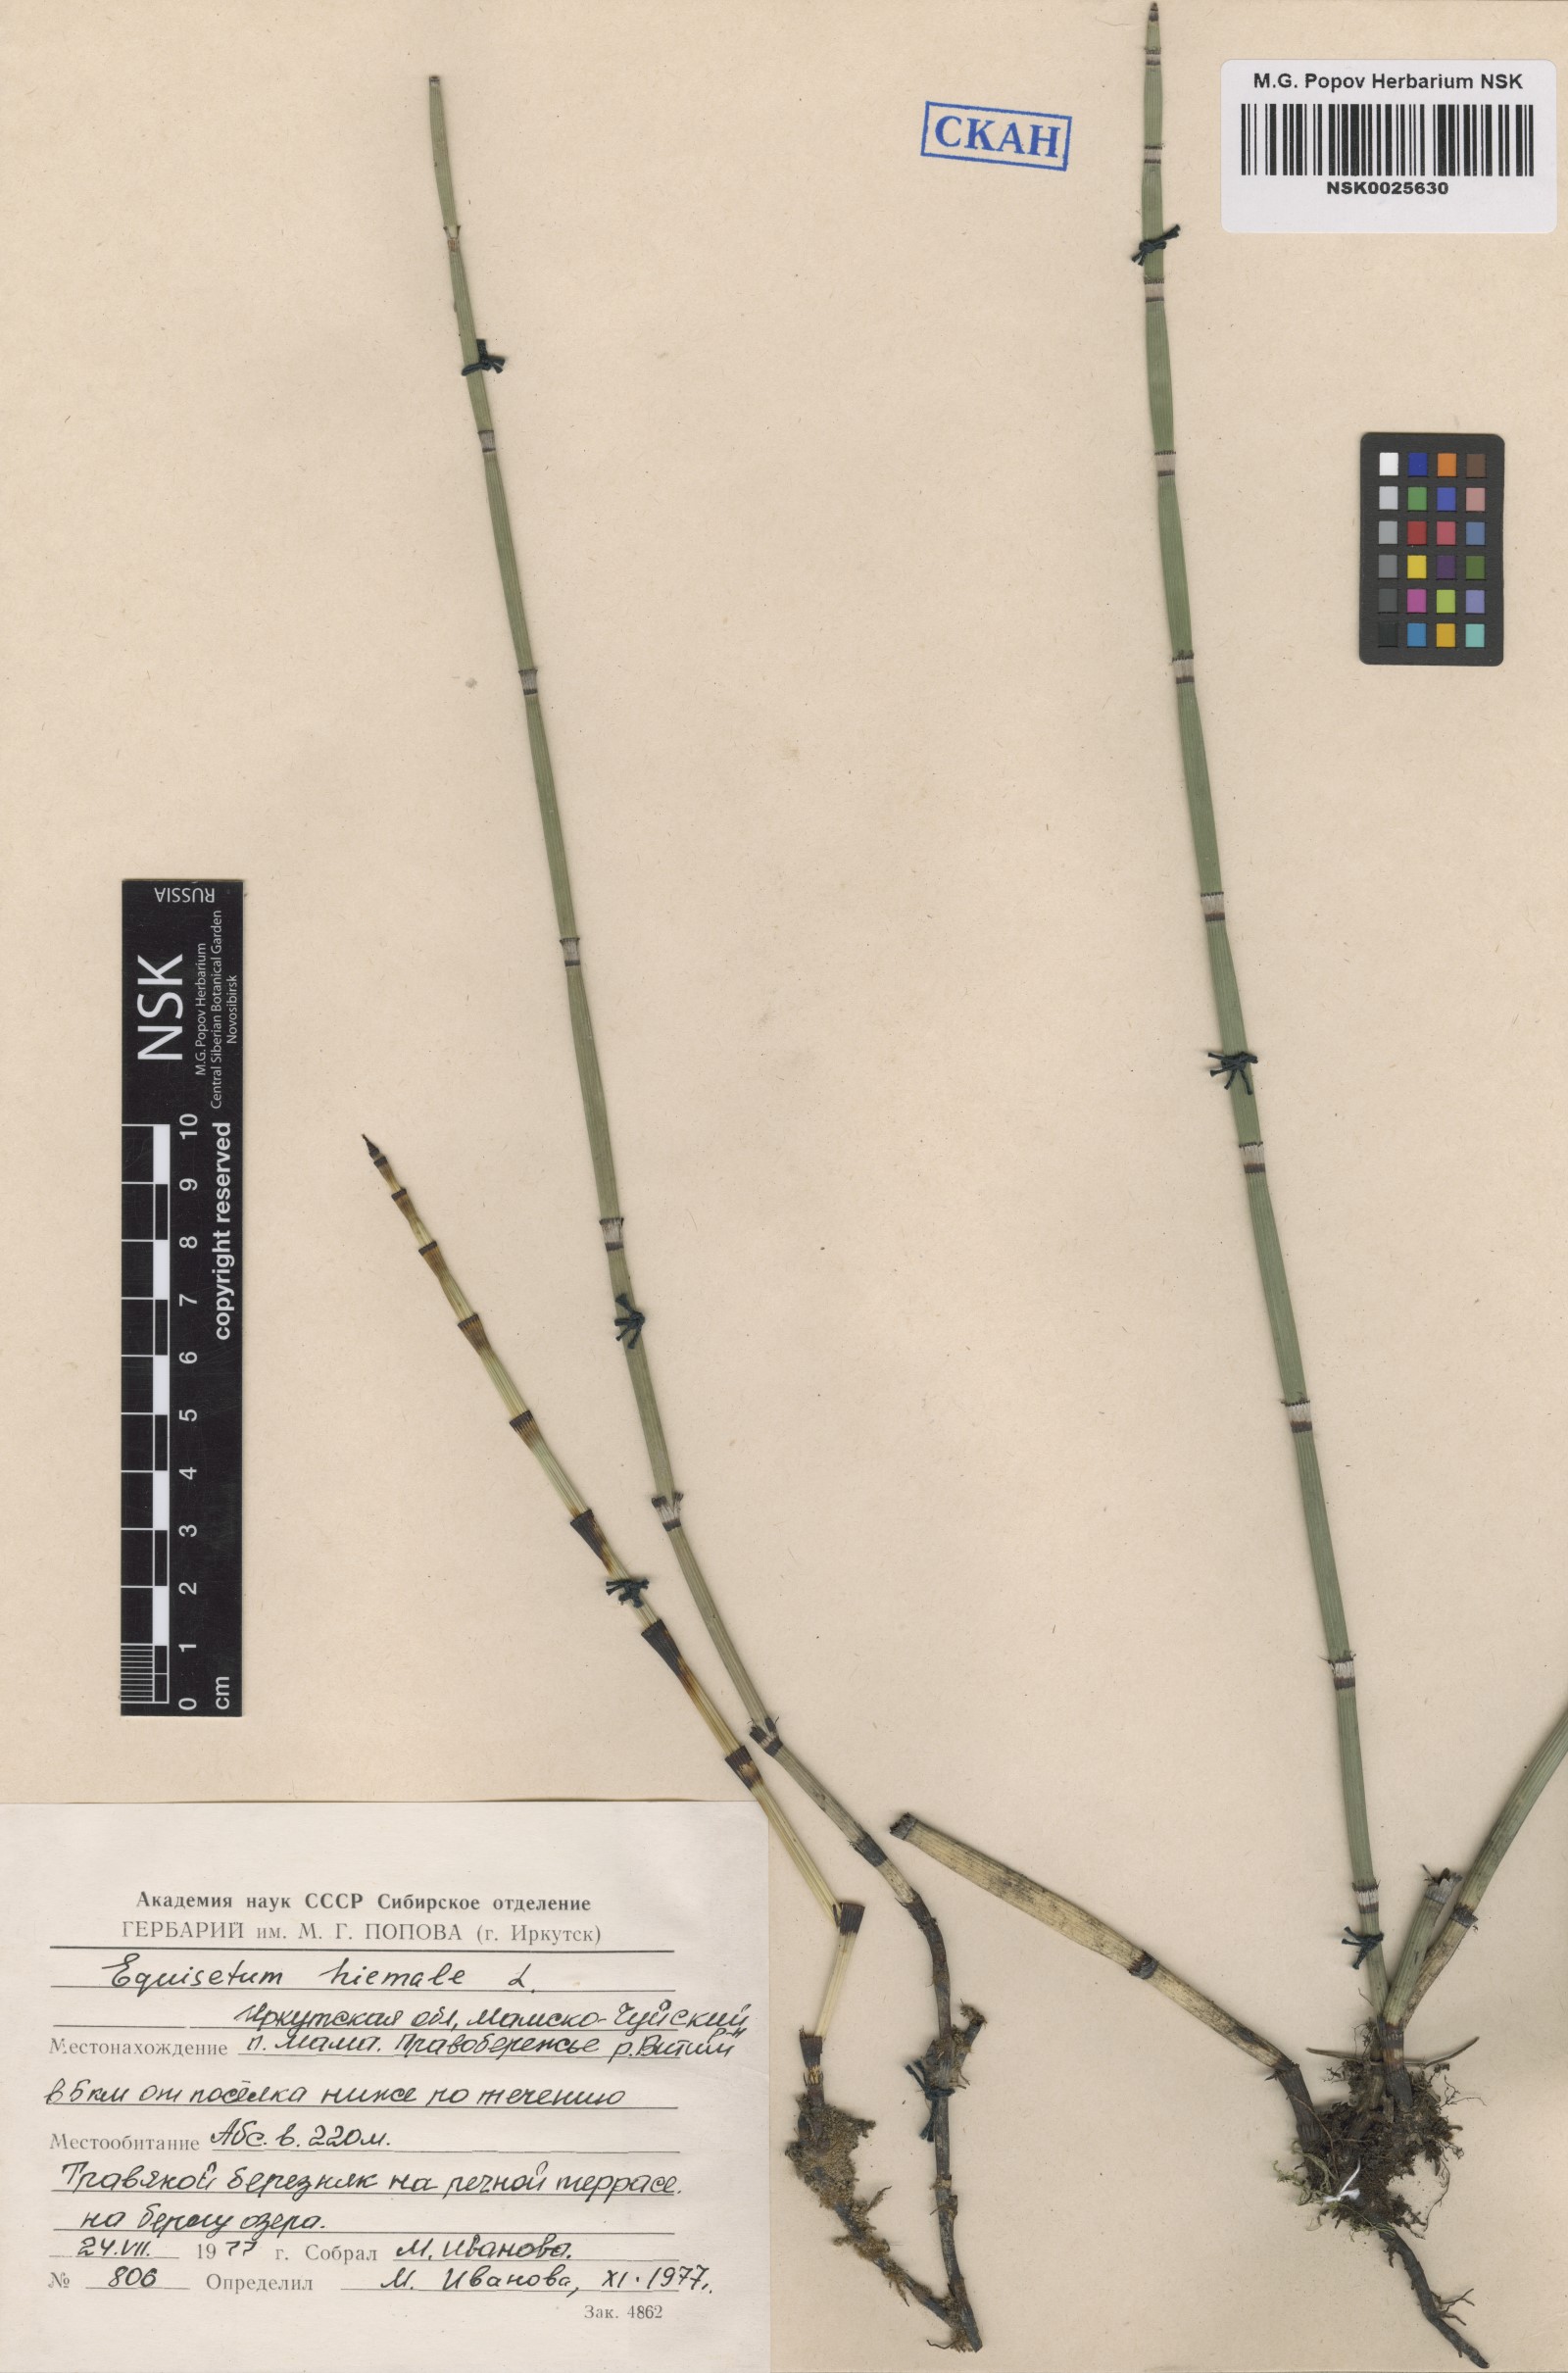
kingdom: Plantae
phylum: Tracheophyta
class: Polypodiopsida
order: Equisetales
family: Equisetaceae
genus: Equisetum
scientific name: Equisetum hyemale
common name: Rough horsetail
